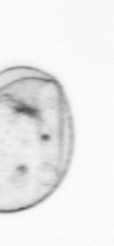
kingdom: Chromista
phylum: Myzozoa
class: Dinophyceae
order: Noctilucales
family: Noctilucaceae
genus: Noctiluca
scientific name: Noctiluca scintillans
